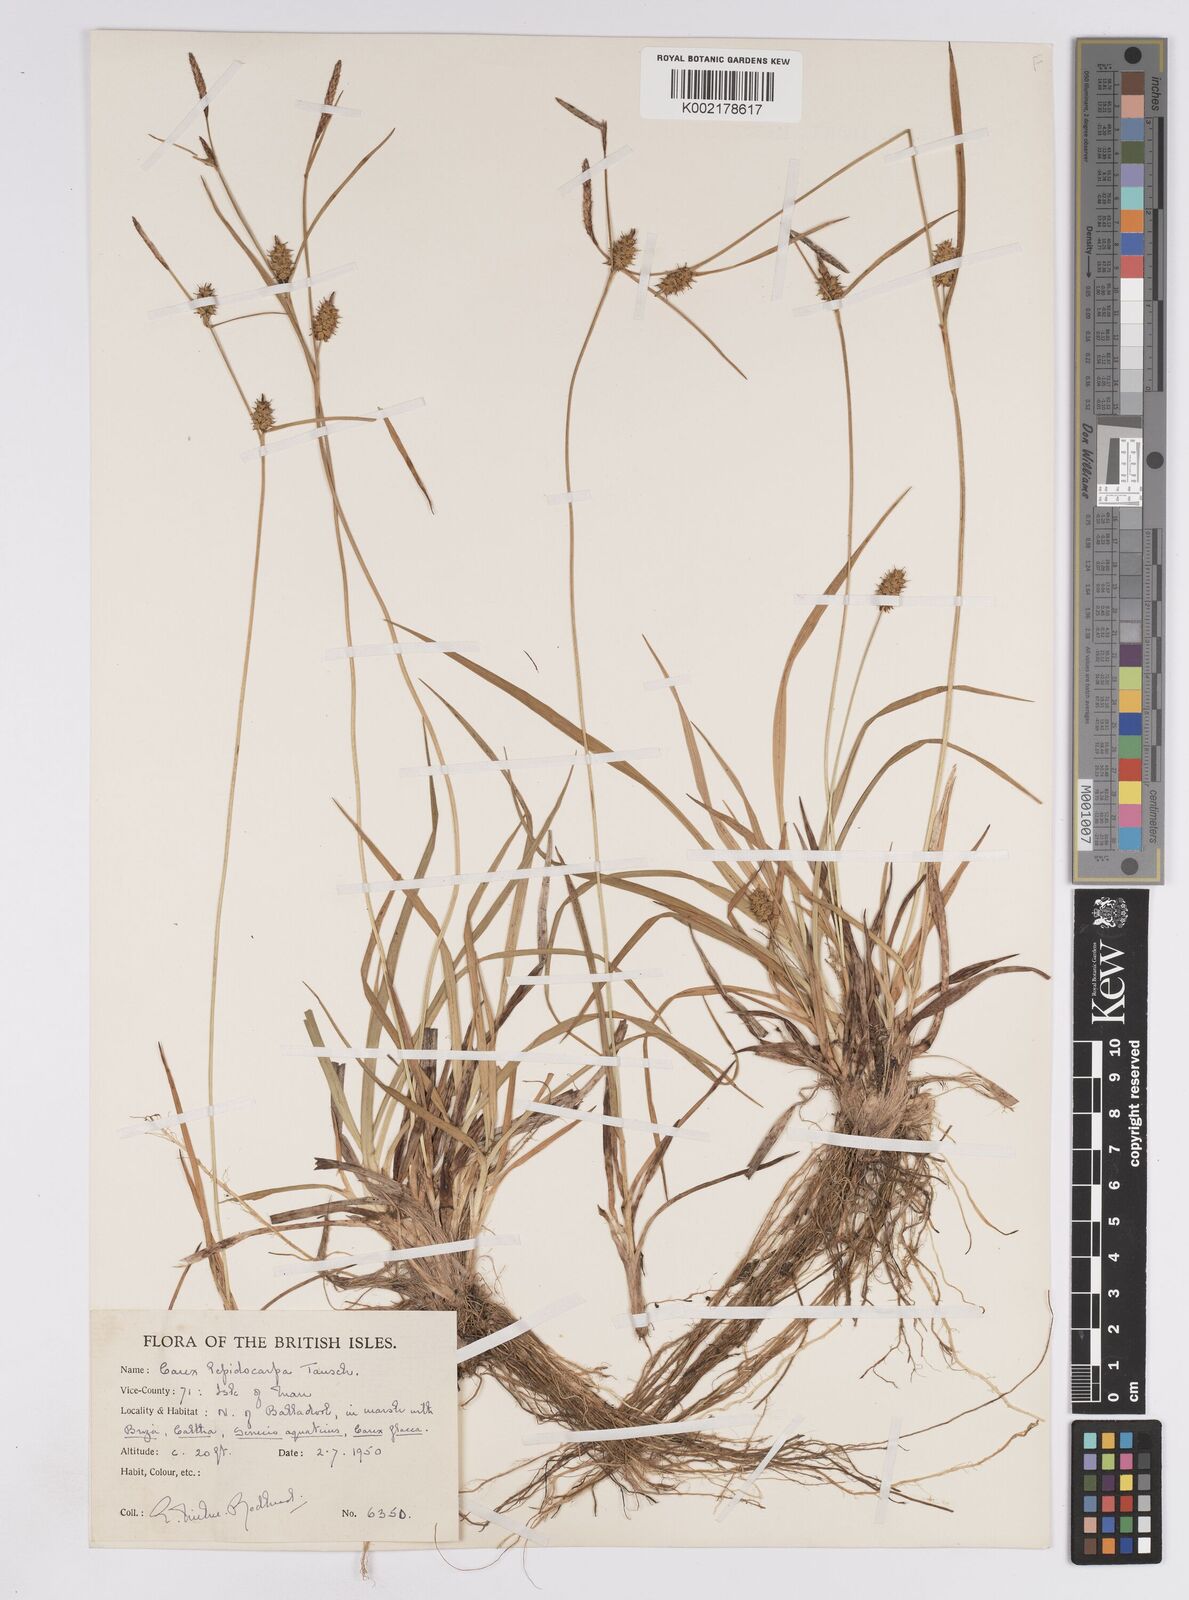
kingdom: Plantae
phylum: Tracheophyta
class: Liliopsida
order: Poales
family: Cyperaceae
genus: Carex
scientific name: Carex lepidocarpa
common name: Long-stalked yellow-sedge
